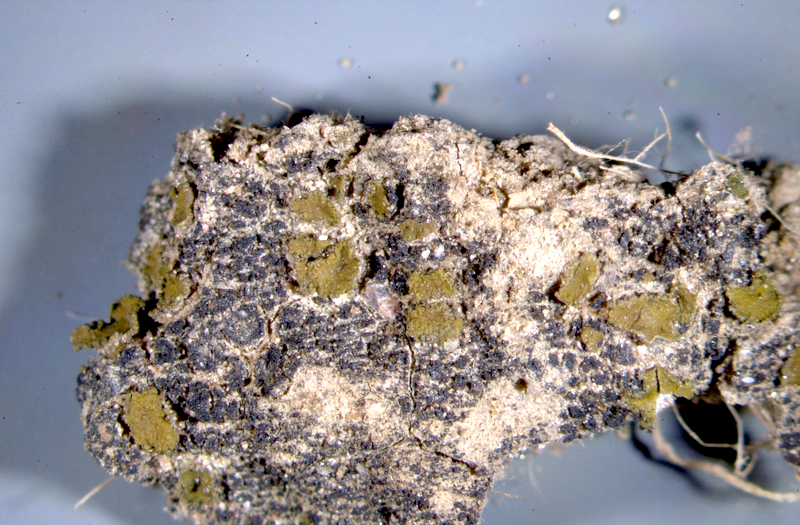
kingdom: Fungi
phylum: Ascomycota
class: Lichinomycetes
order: Lichinales
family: Peltulaceae
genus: Peltula
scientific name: Peltula radicata
